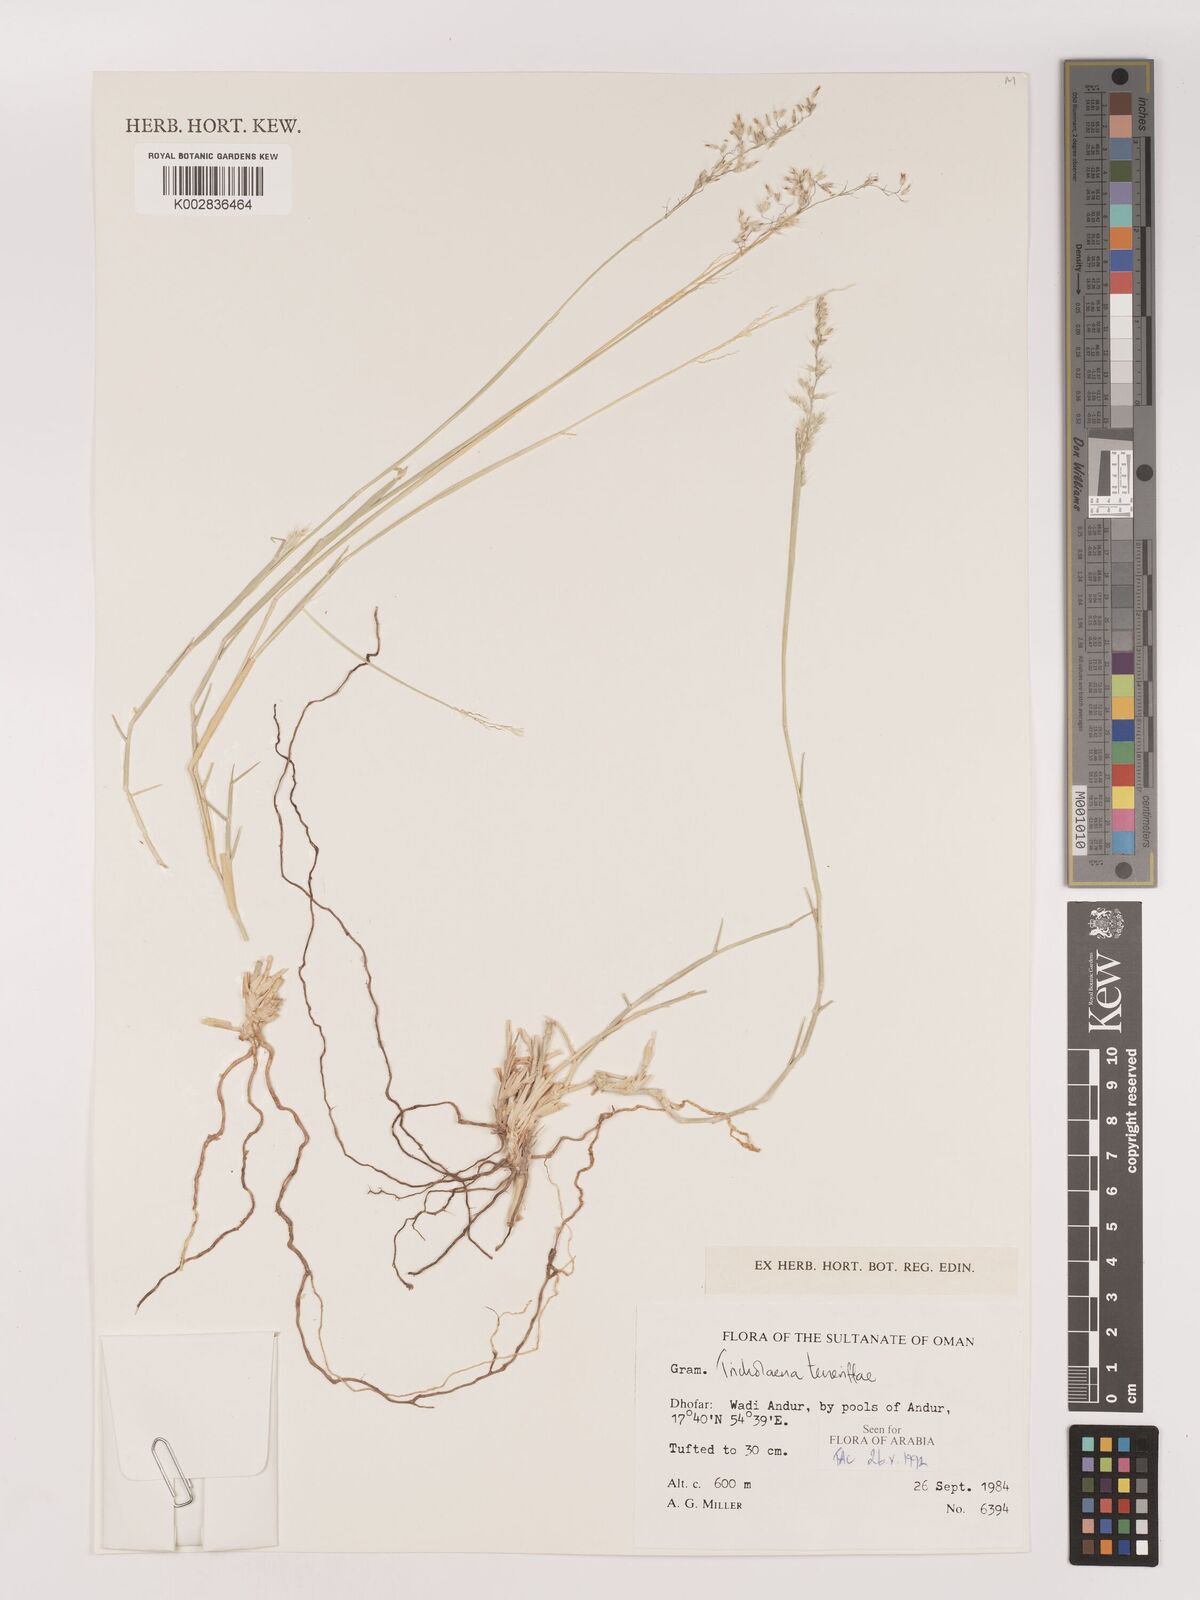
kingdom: Plantae
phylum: Tracheophyta
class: Liliopsida
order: Poales
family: Poaceae
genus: Tricholaena
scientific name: Tricholaena teneriffae
